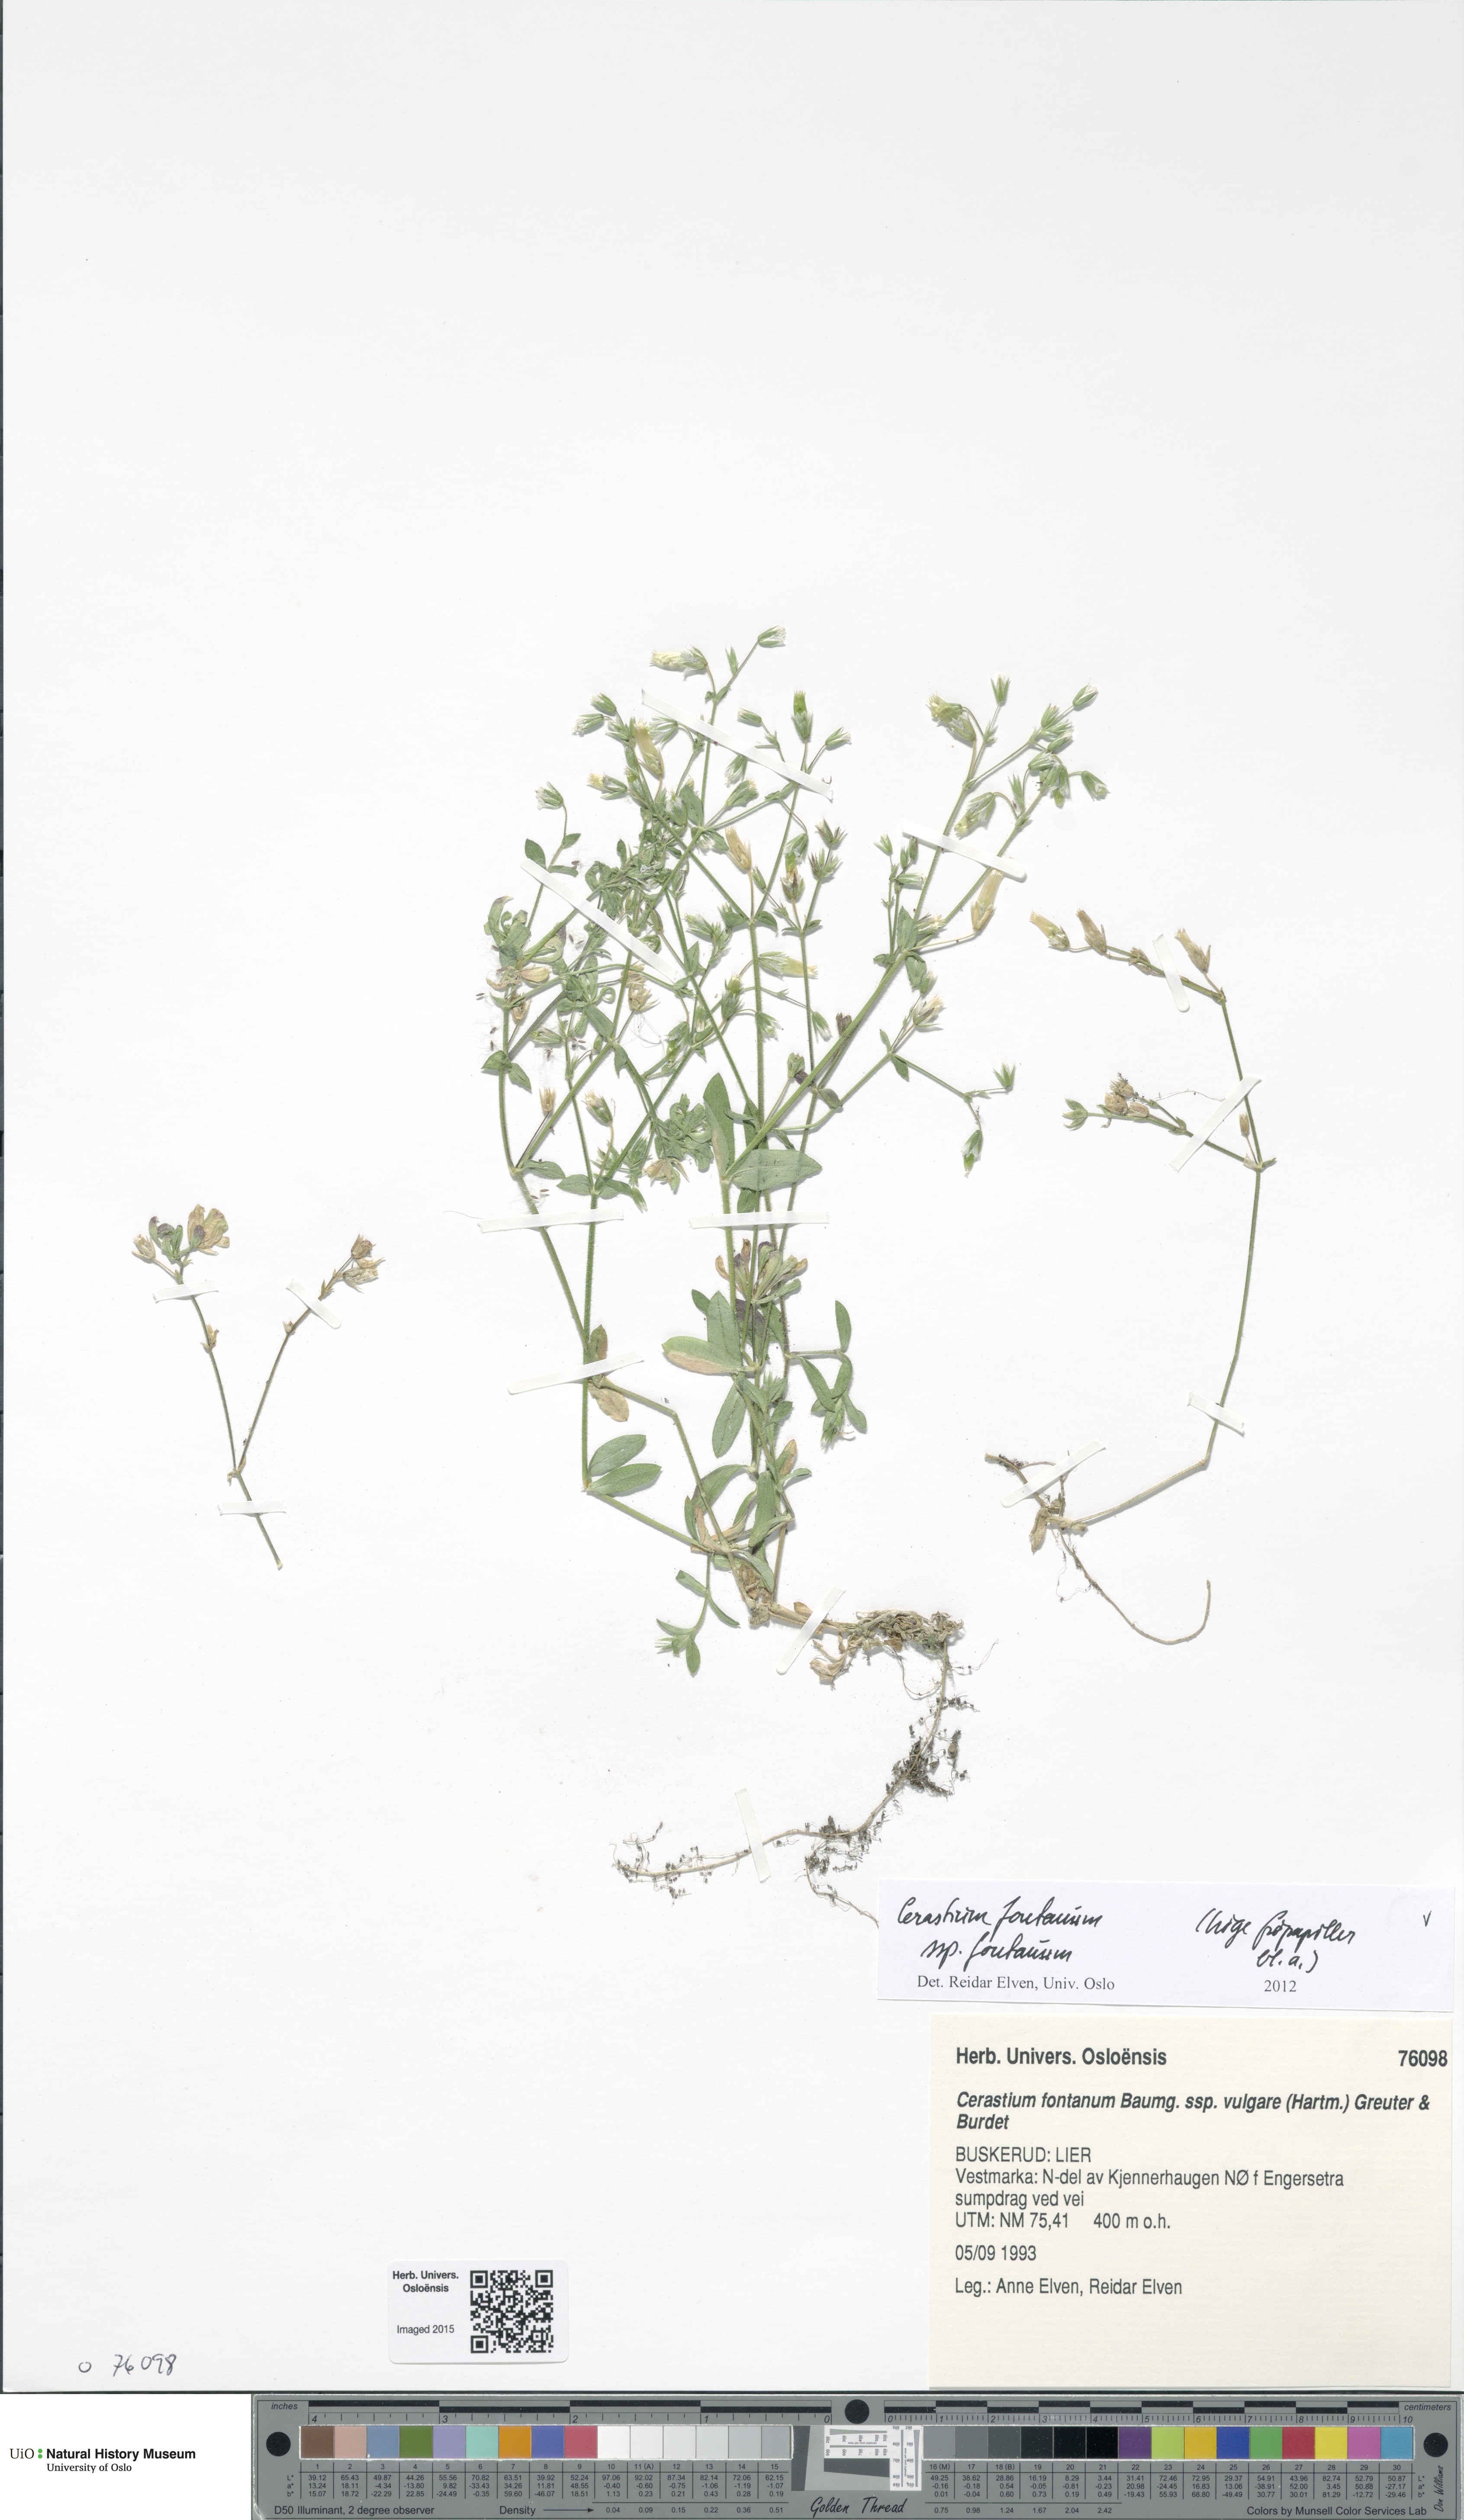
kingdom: Plantae
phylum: Tracheophyta
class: Magnoliopsida
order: Caryophyllales
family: Caryophyllaceae
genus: Cerastium
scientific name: Cerastium fontanum
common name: Common mouse-ear
